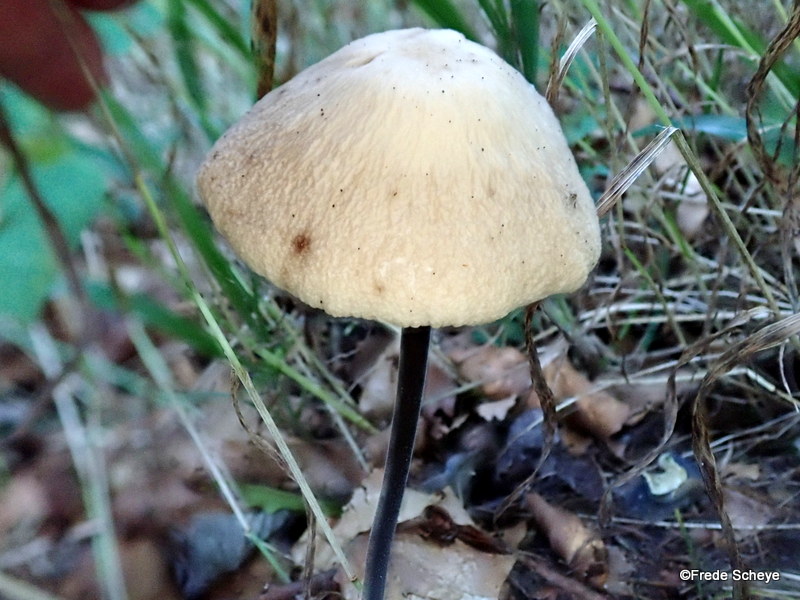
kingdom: Fungi
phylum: Basidiomycota
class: Agaricomycetes
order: Agaricales
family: Omphalotaceae
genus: Mycetinis
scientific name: Mycetinis alliaceus
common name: stor løghat
